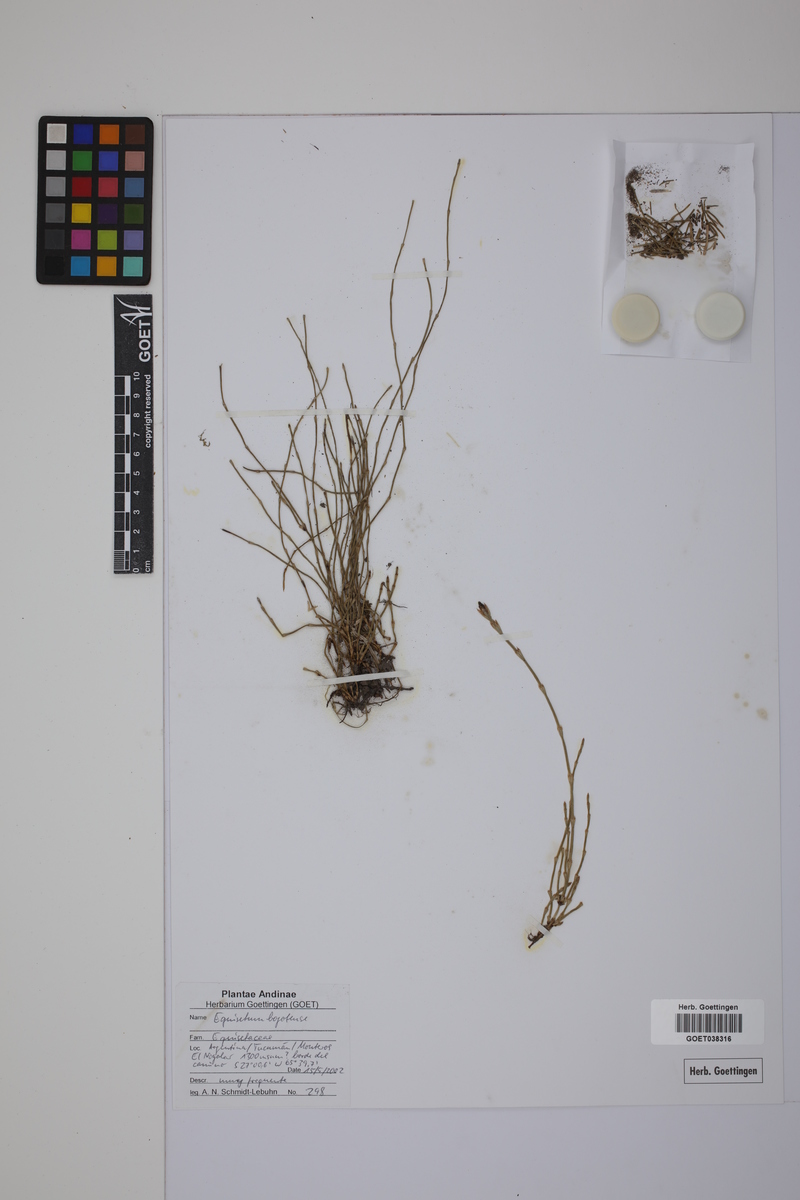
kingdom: Plantae
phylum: Tracheophyta
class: Polypodiopsida
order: Equisetales
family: Equisetaceae
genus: Equisetum
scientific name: Equisetum bogotense
